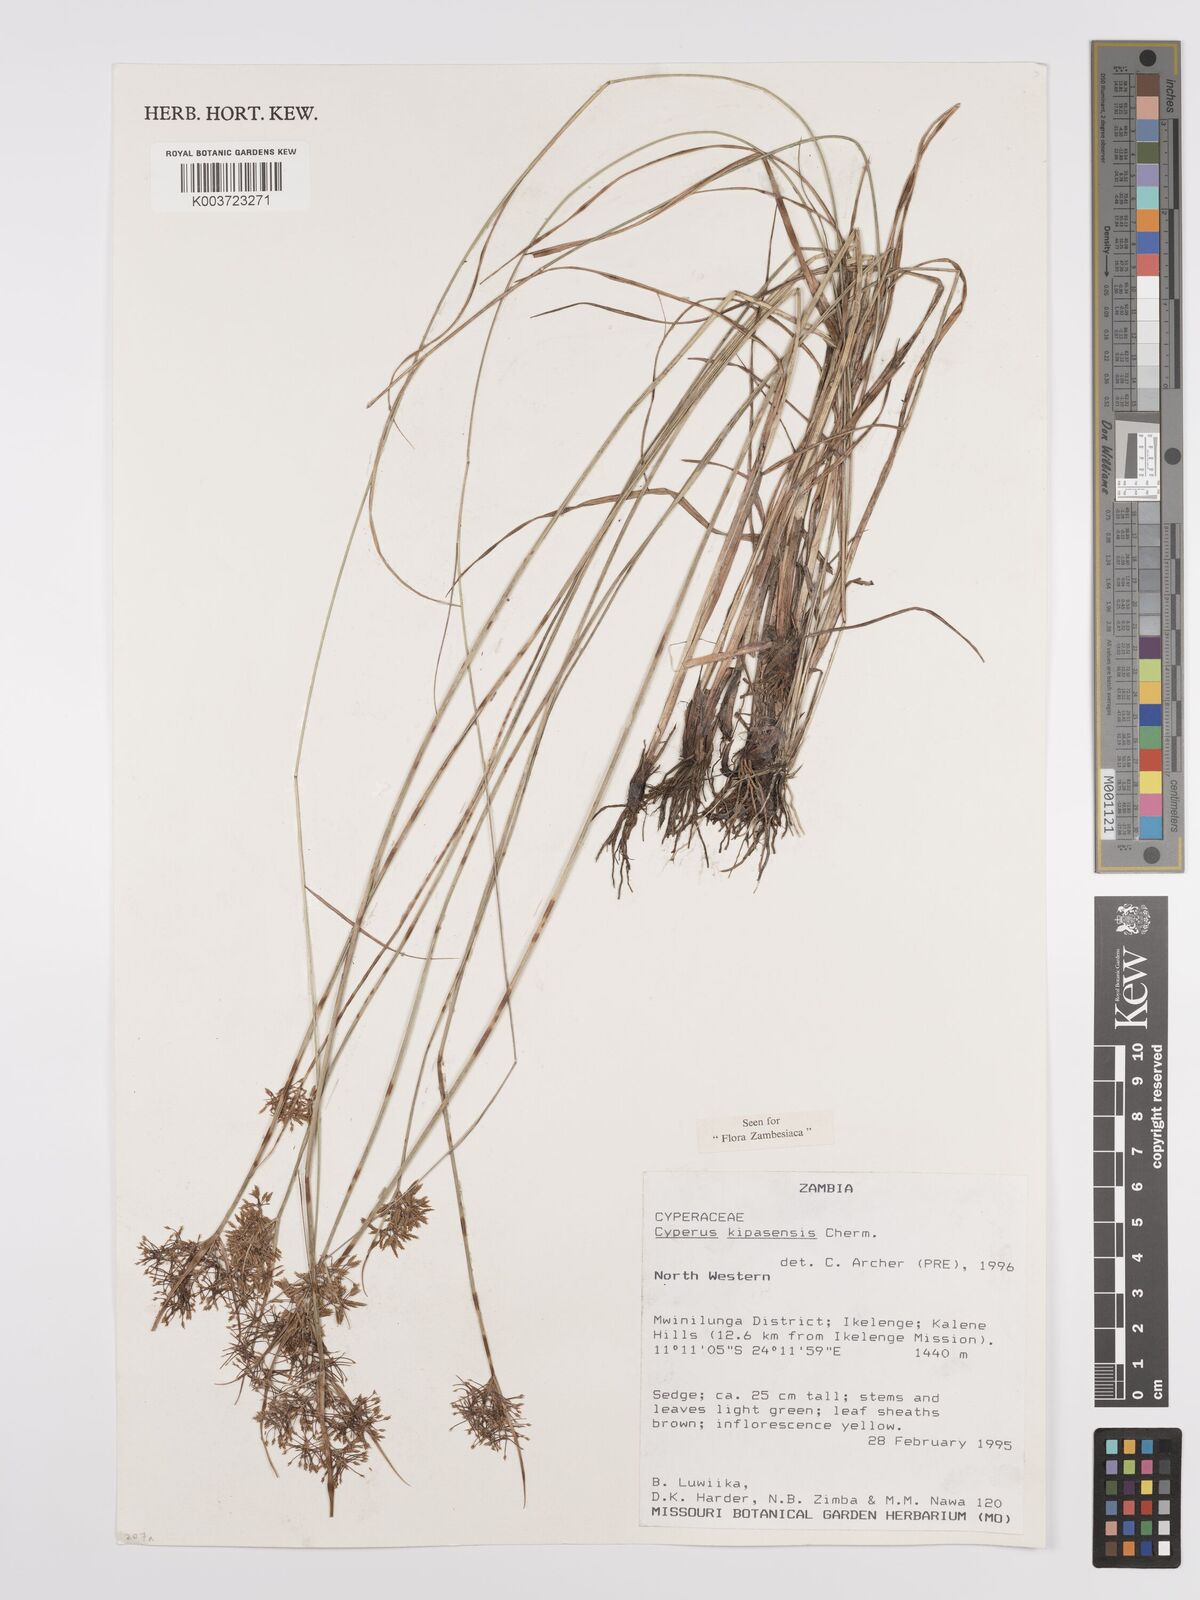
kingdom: Plantae
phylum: Tracheophyta
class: Liliopsida
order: Poales
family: Cyperaceae
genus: Cyperus
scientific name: Cyperus kipasensis
